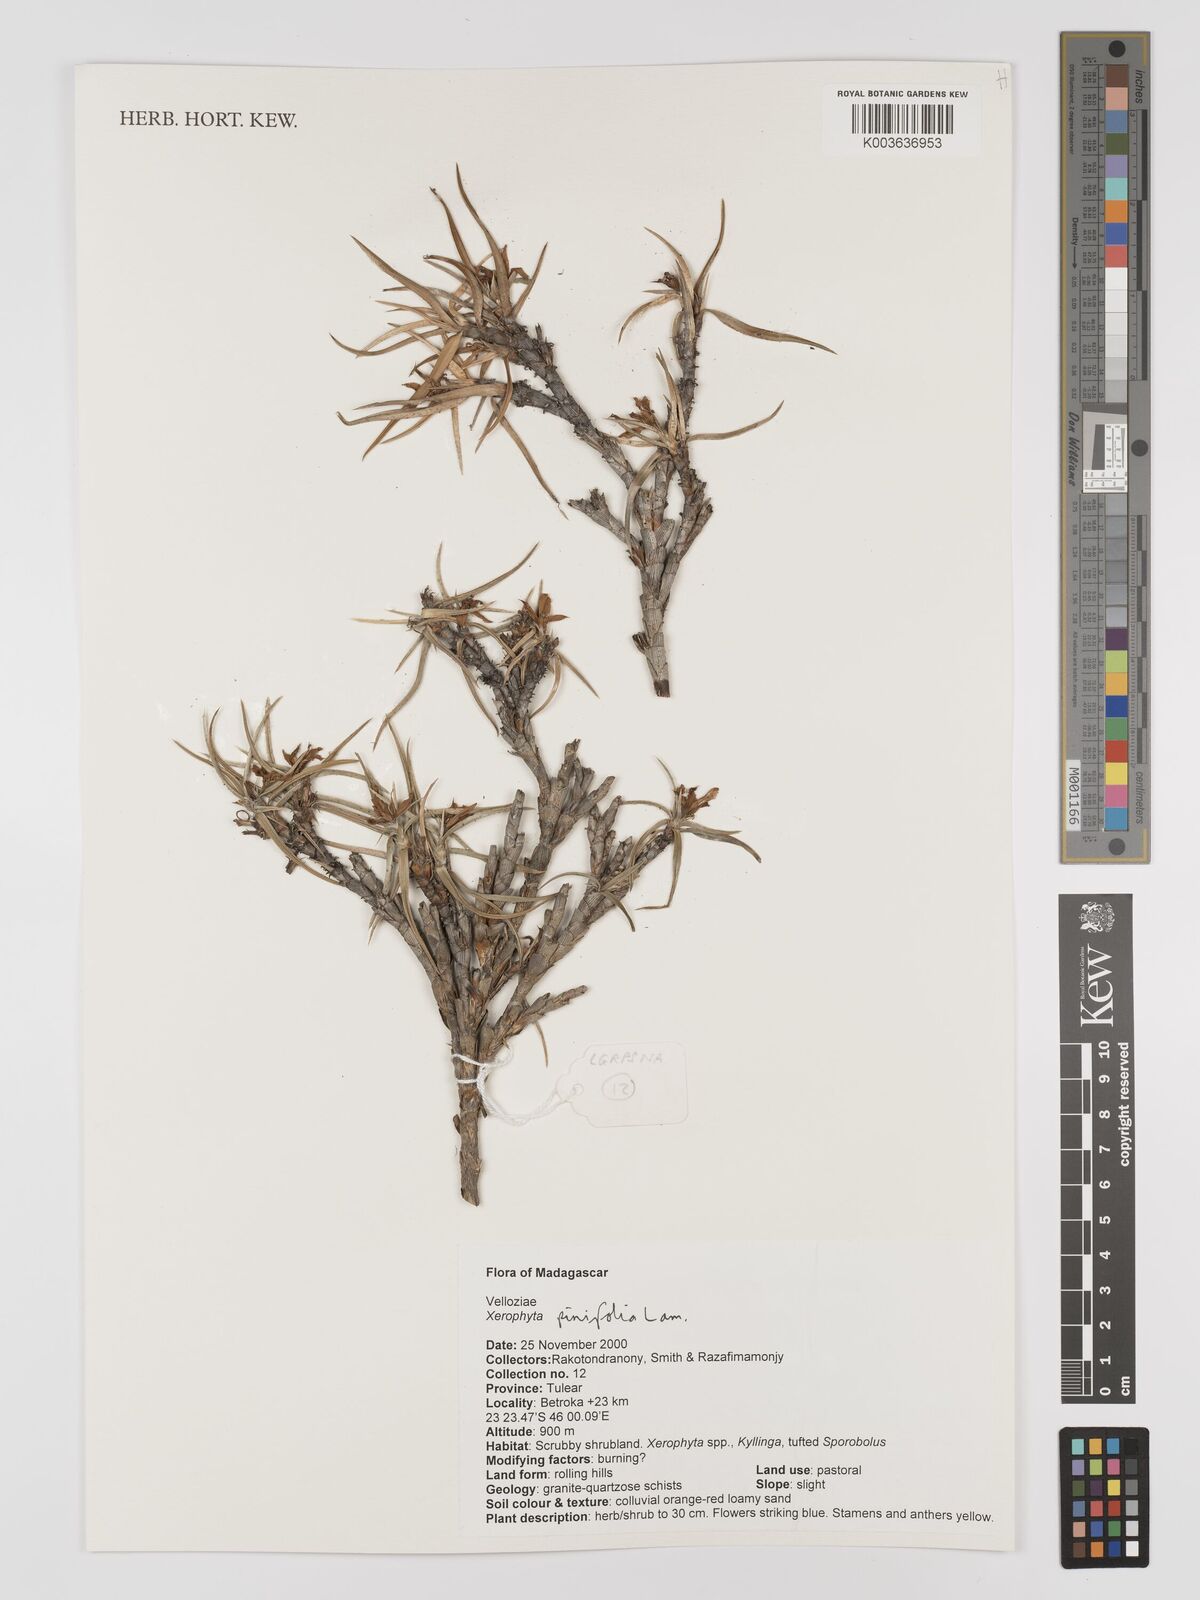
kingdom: Plantae
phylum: Tracheophyta
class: Liliopsida
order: Pandanales
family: Velloziaceae
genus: Xerophyta
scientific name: Xerophyta pinifolia
